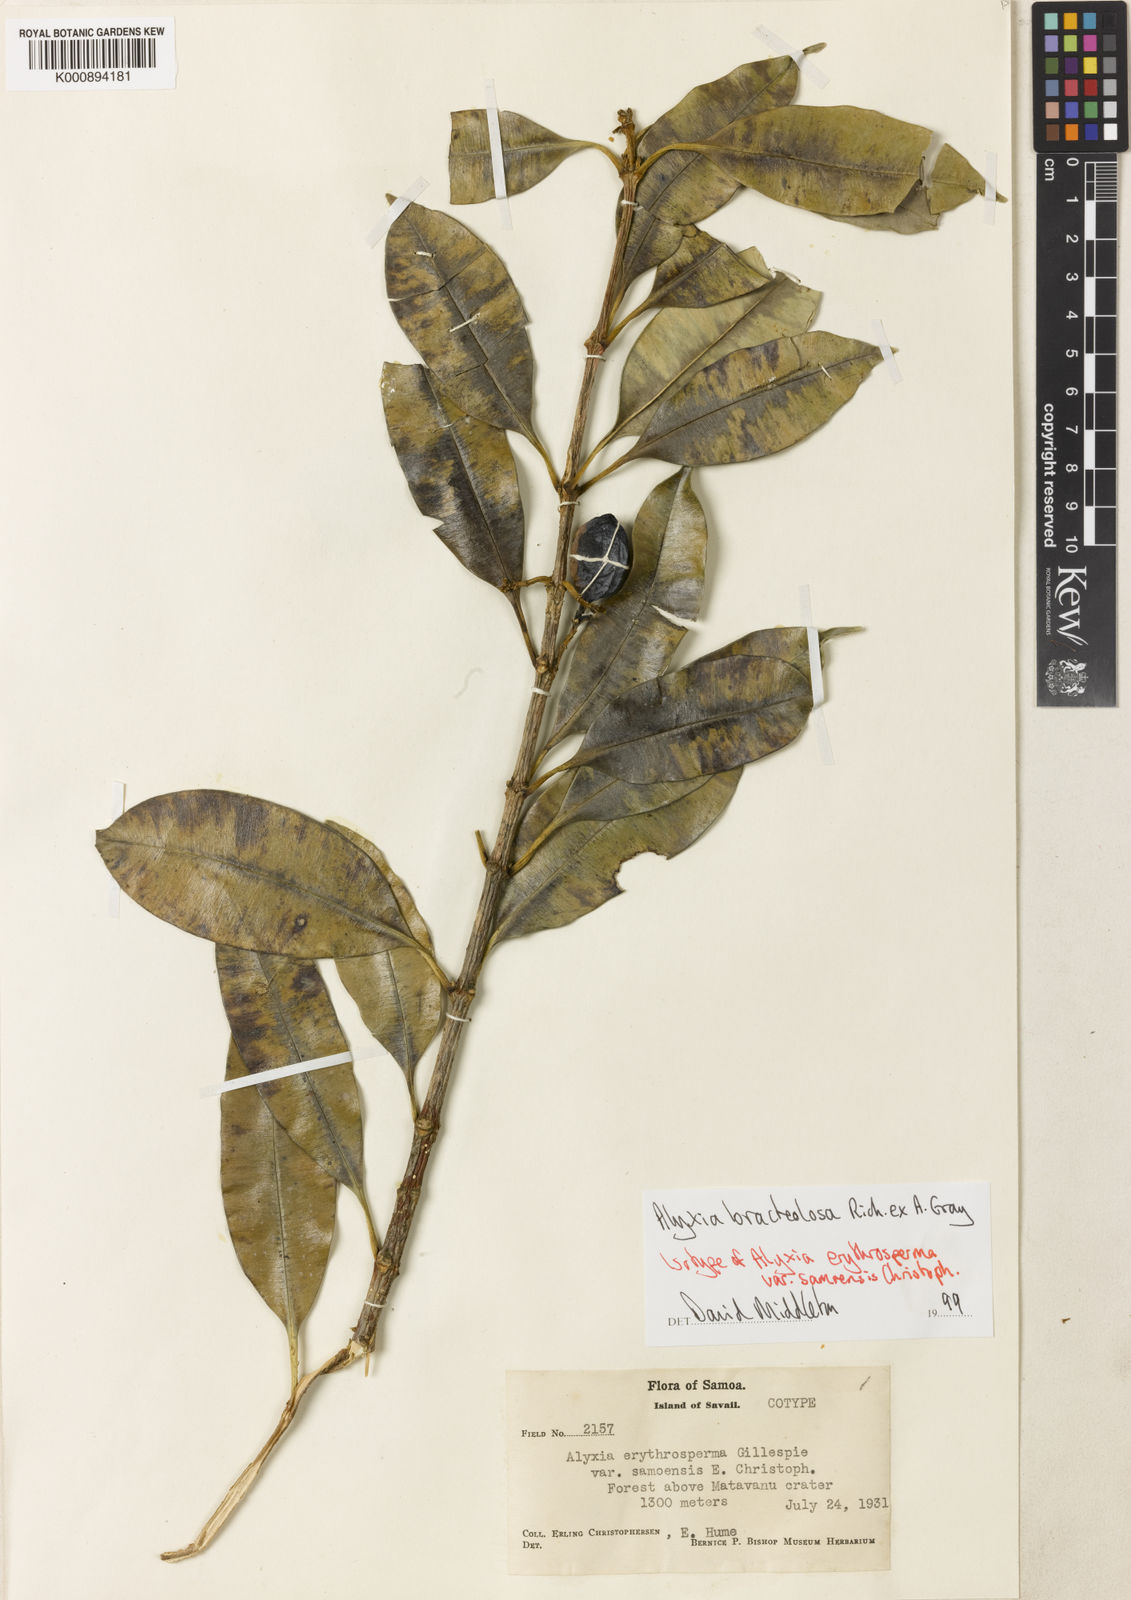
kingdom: Plantae
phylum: Tracheophyta
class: Magnoliopsida
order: Gentianales
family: Apocynaceae
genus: Alyxia
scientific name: Alyxia bracteolosa
